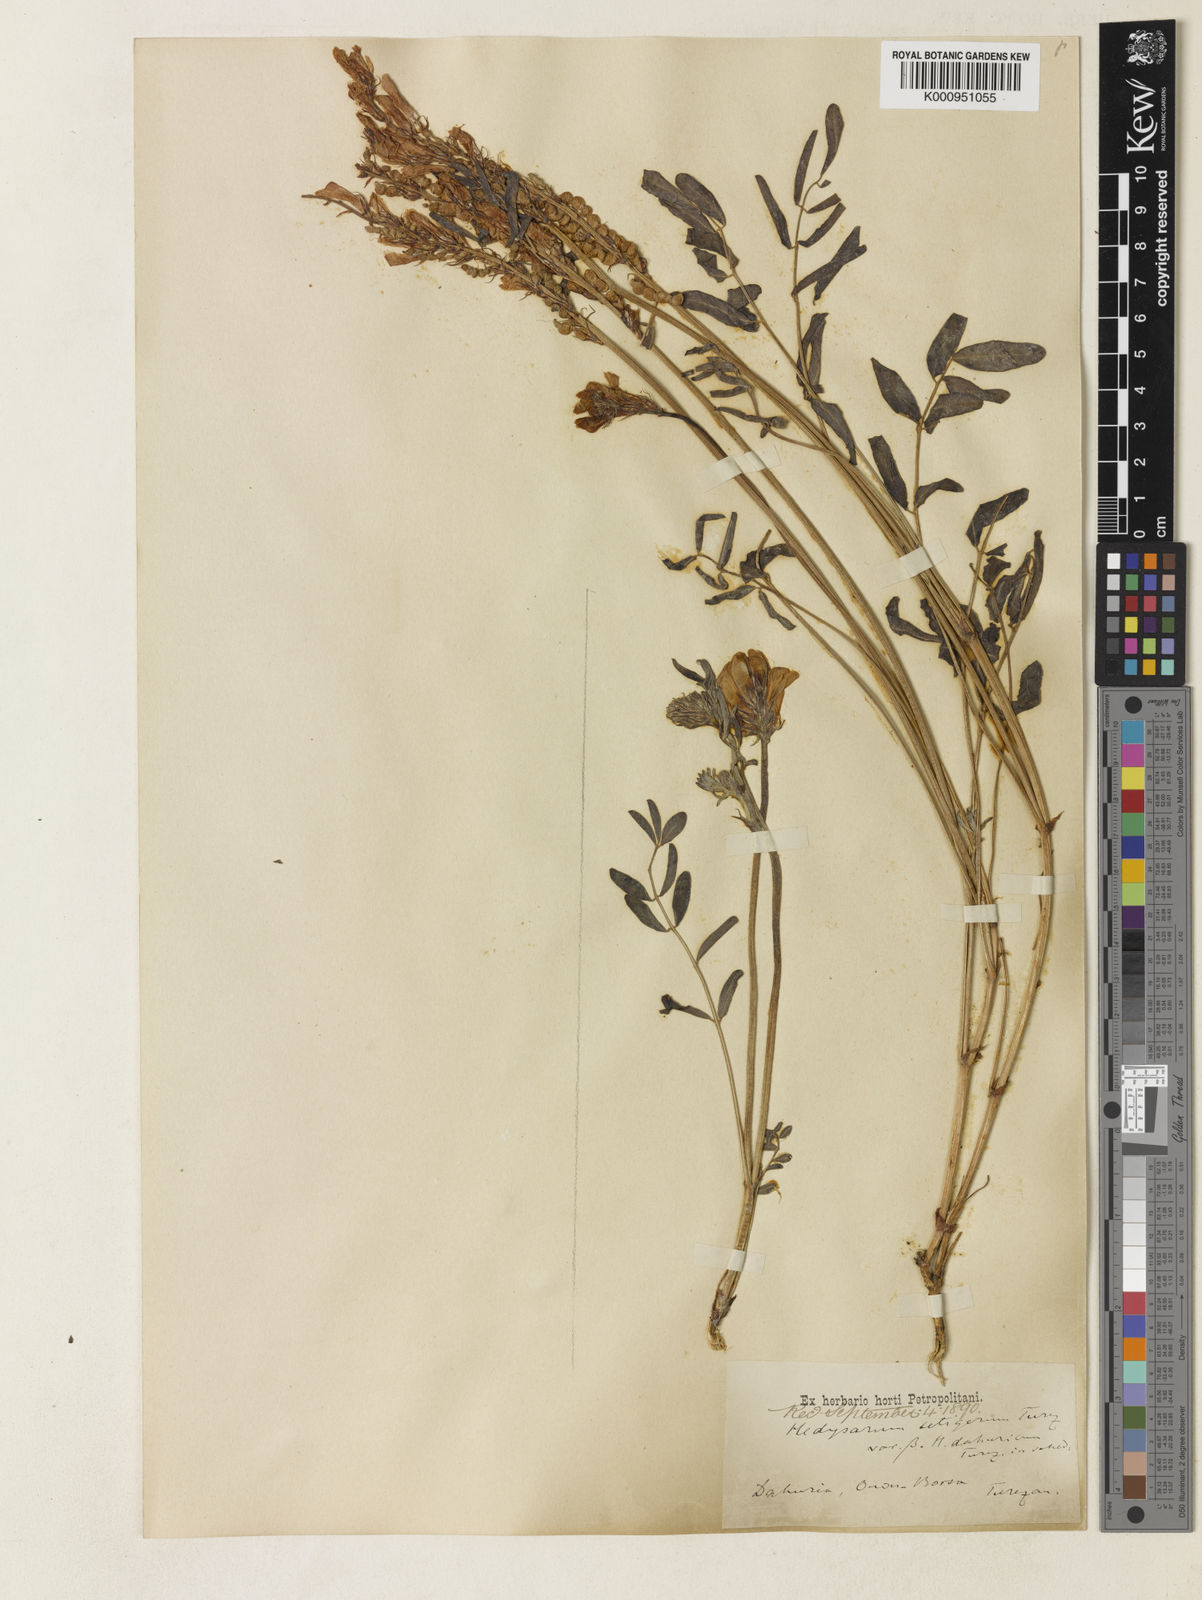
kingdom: Plantae
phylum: Tracheophyta
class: Magnoliopsida
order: Fabales
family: Fabaceae
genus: Hedysarum
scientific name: Hedysarum gmelinii
